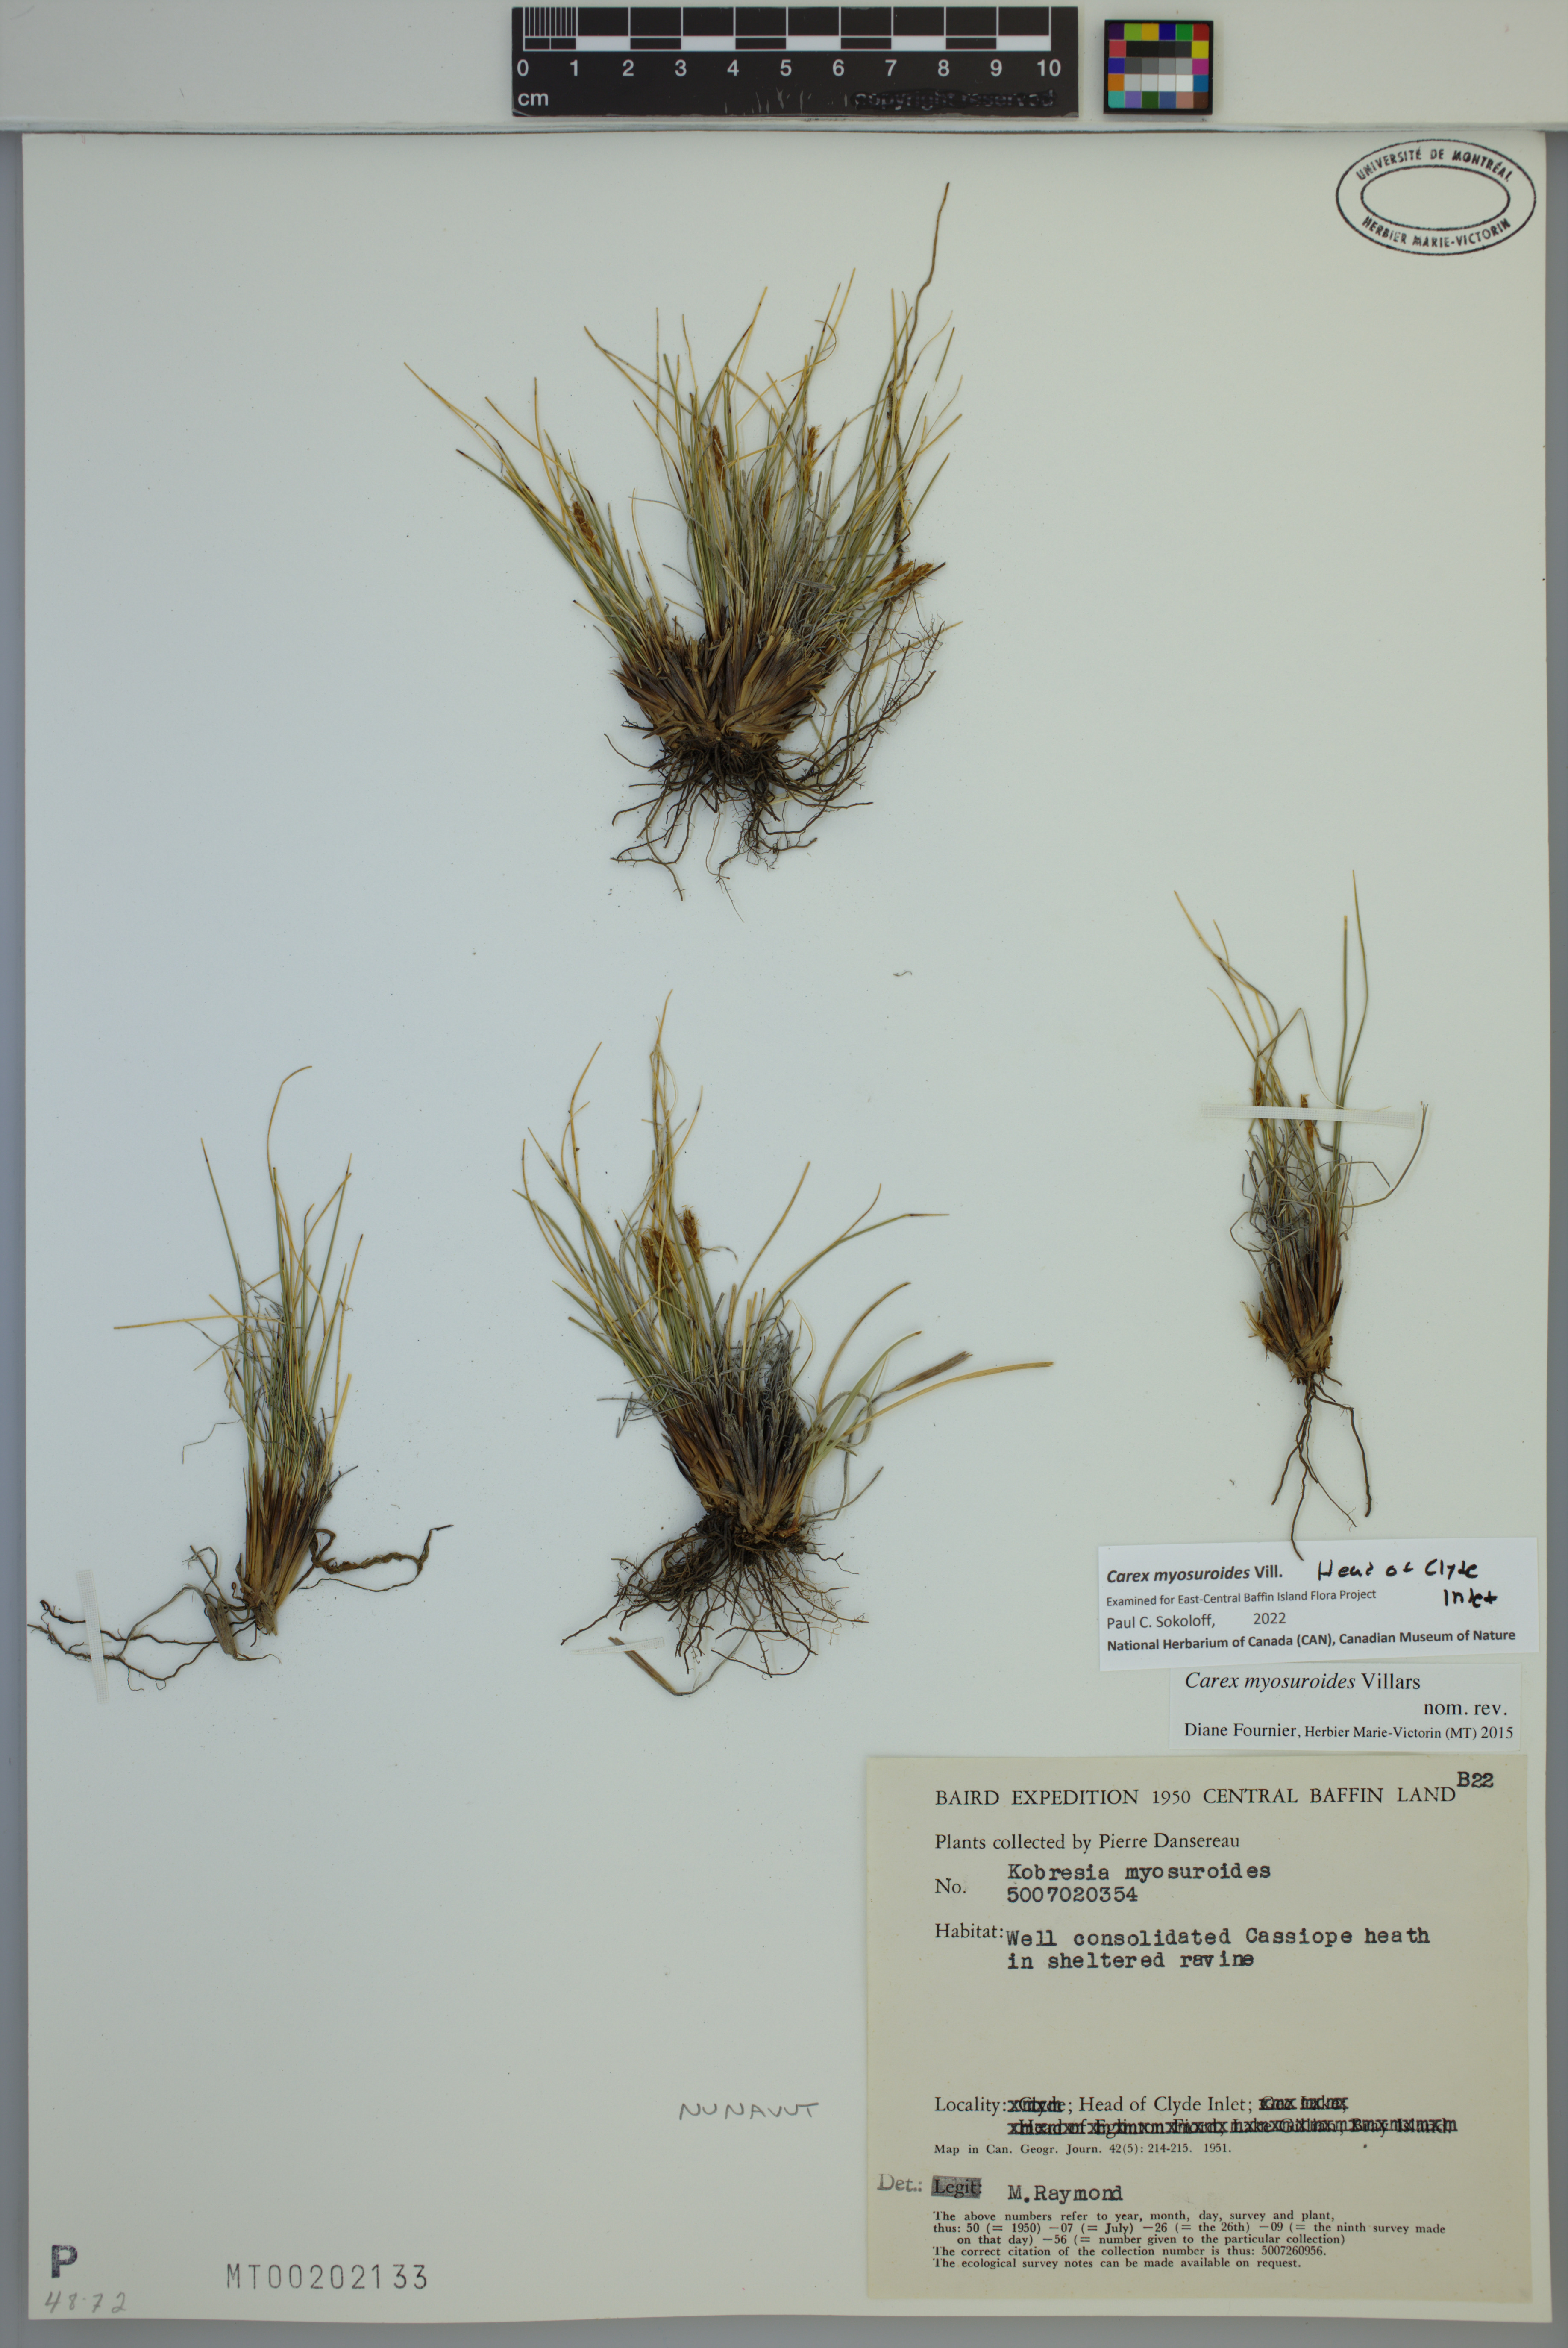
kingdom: Plantae
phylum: Tracheophyta
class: Liliopsida
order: Poales
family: Cyperaceae
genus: Carex
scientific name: Carex myosuroides
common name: Bellard's bog sedge
